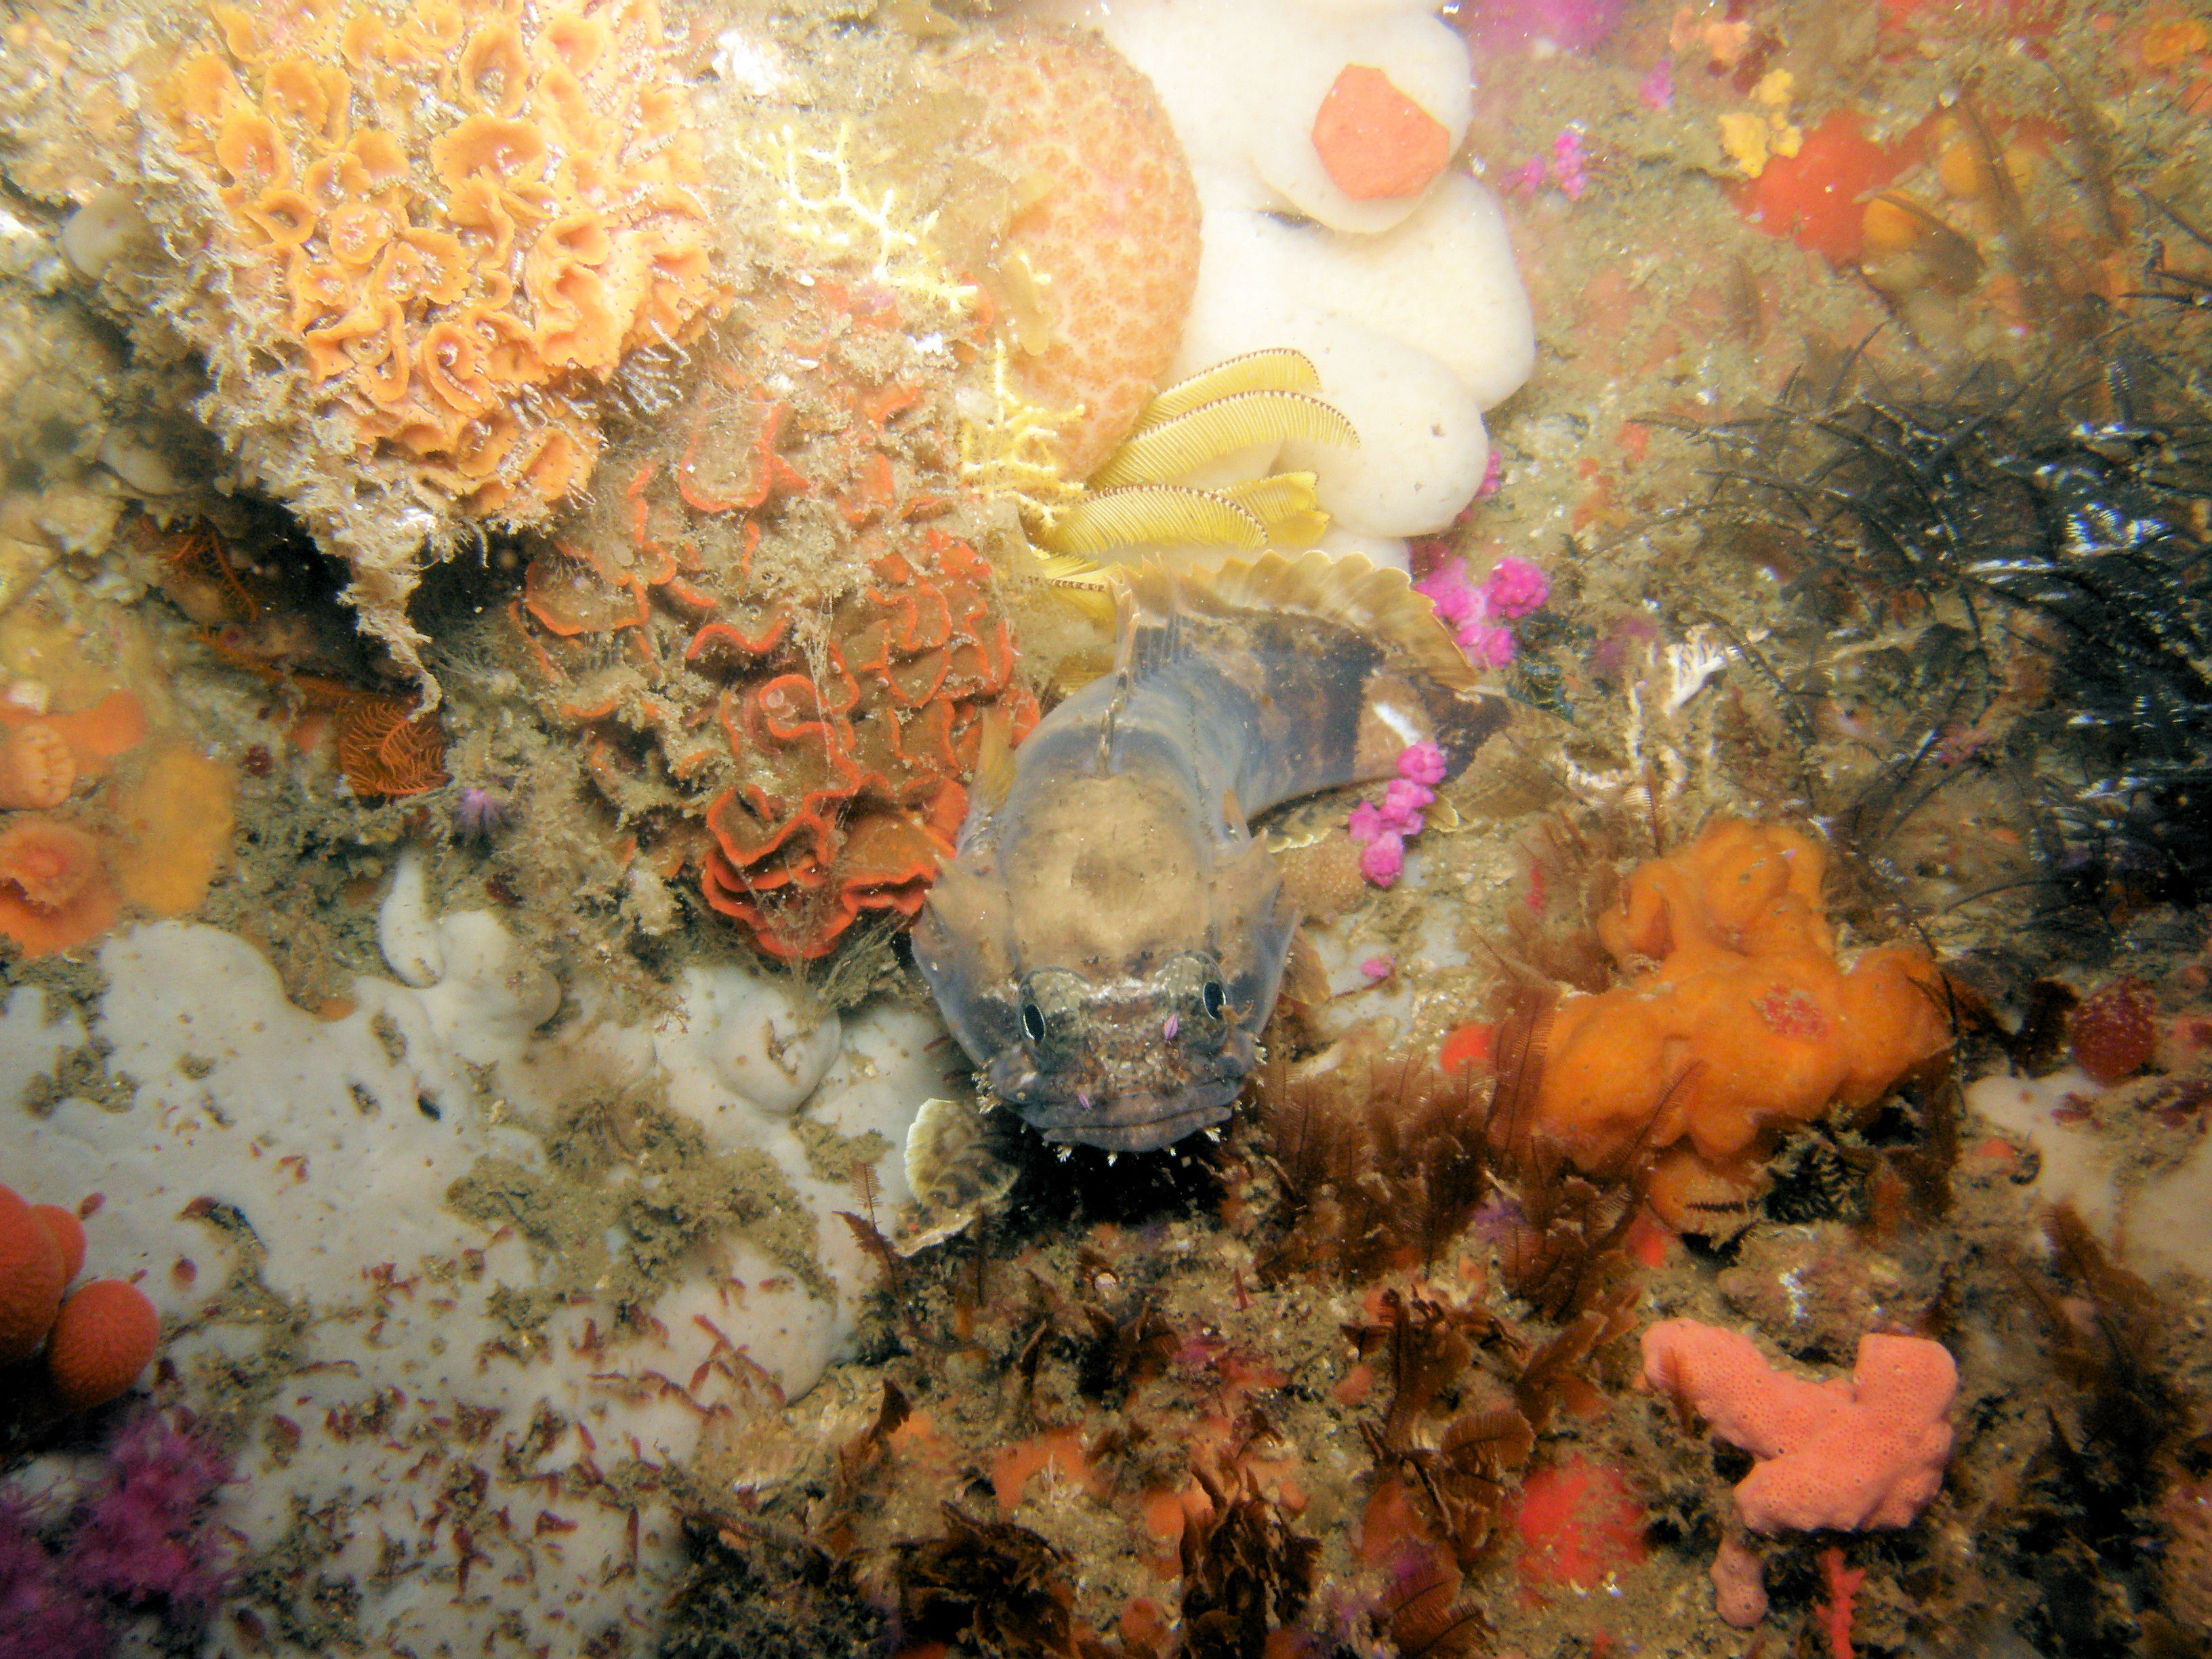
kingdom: Animalia
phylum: Chordata
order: Batrachoidiformes
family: Batrachoididae
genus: Austrobatrachus
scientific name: Austrobatrachus foedus
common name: Puzzled toadfish
